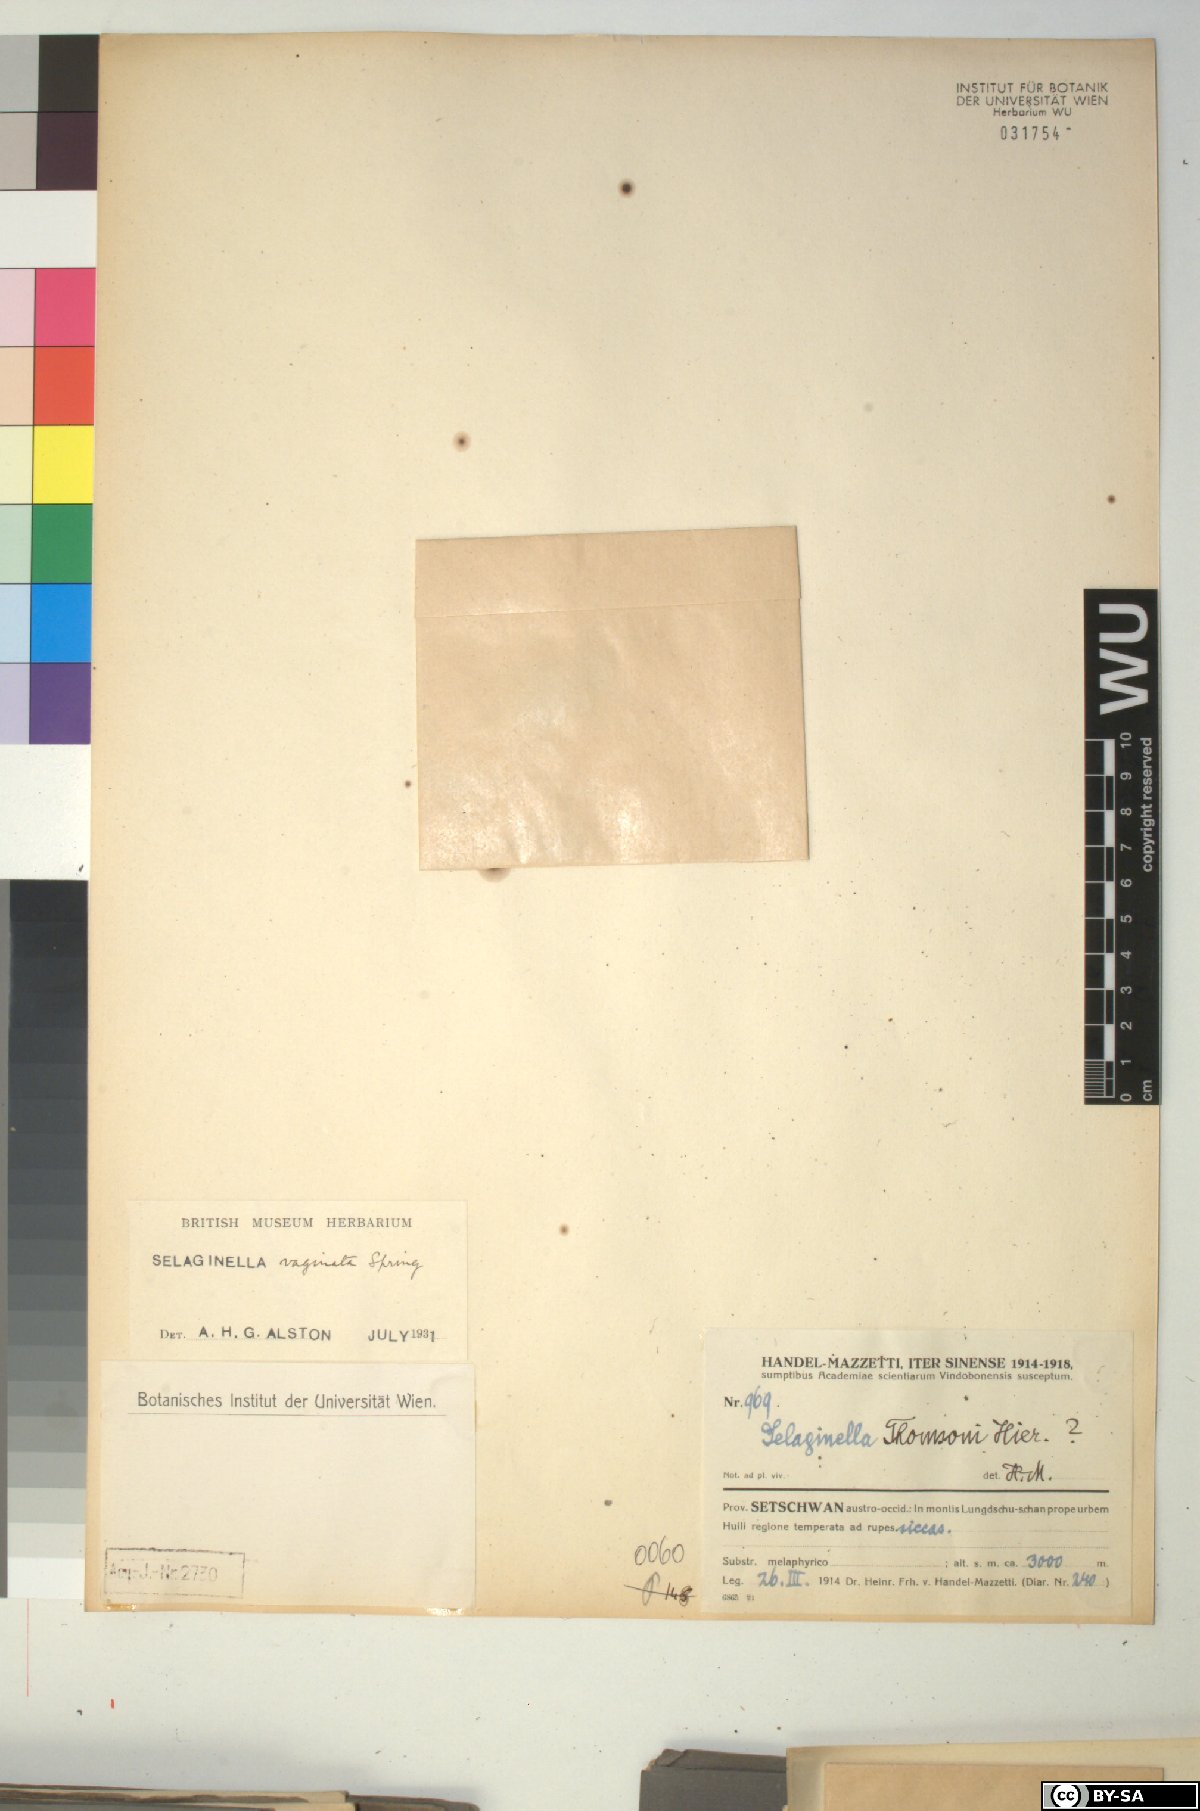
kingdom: Plantae
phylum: Tracheophyta
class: Lycopodiopsida
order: Selaginellales
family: Selaginellaceae
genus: Selaginella
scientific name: Selaginella vaginata
